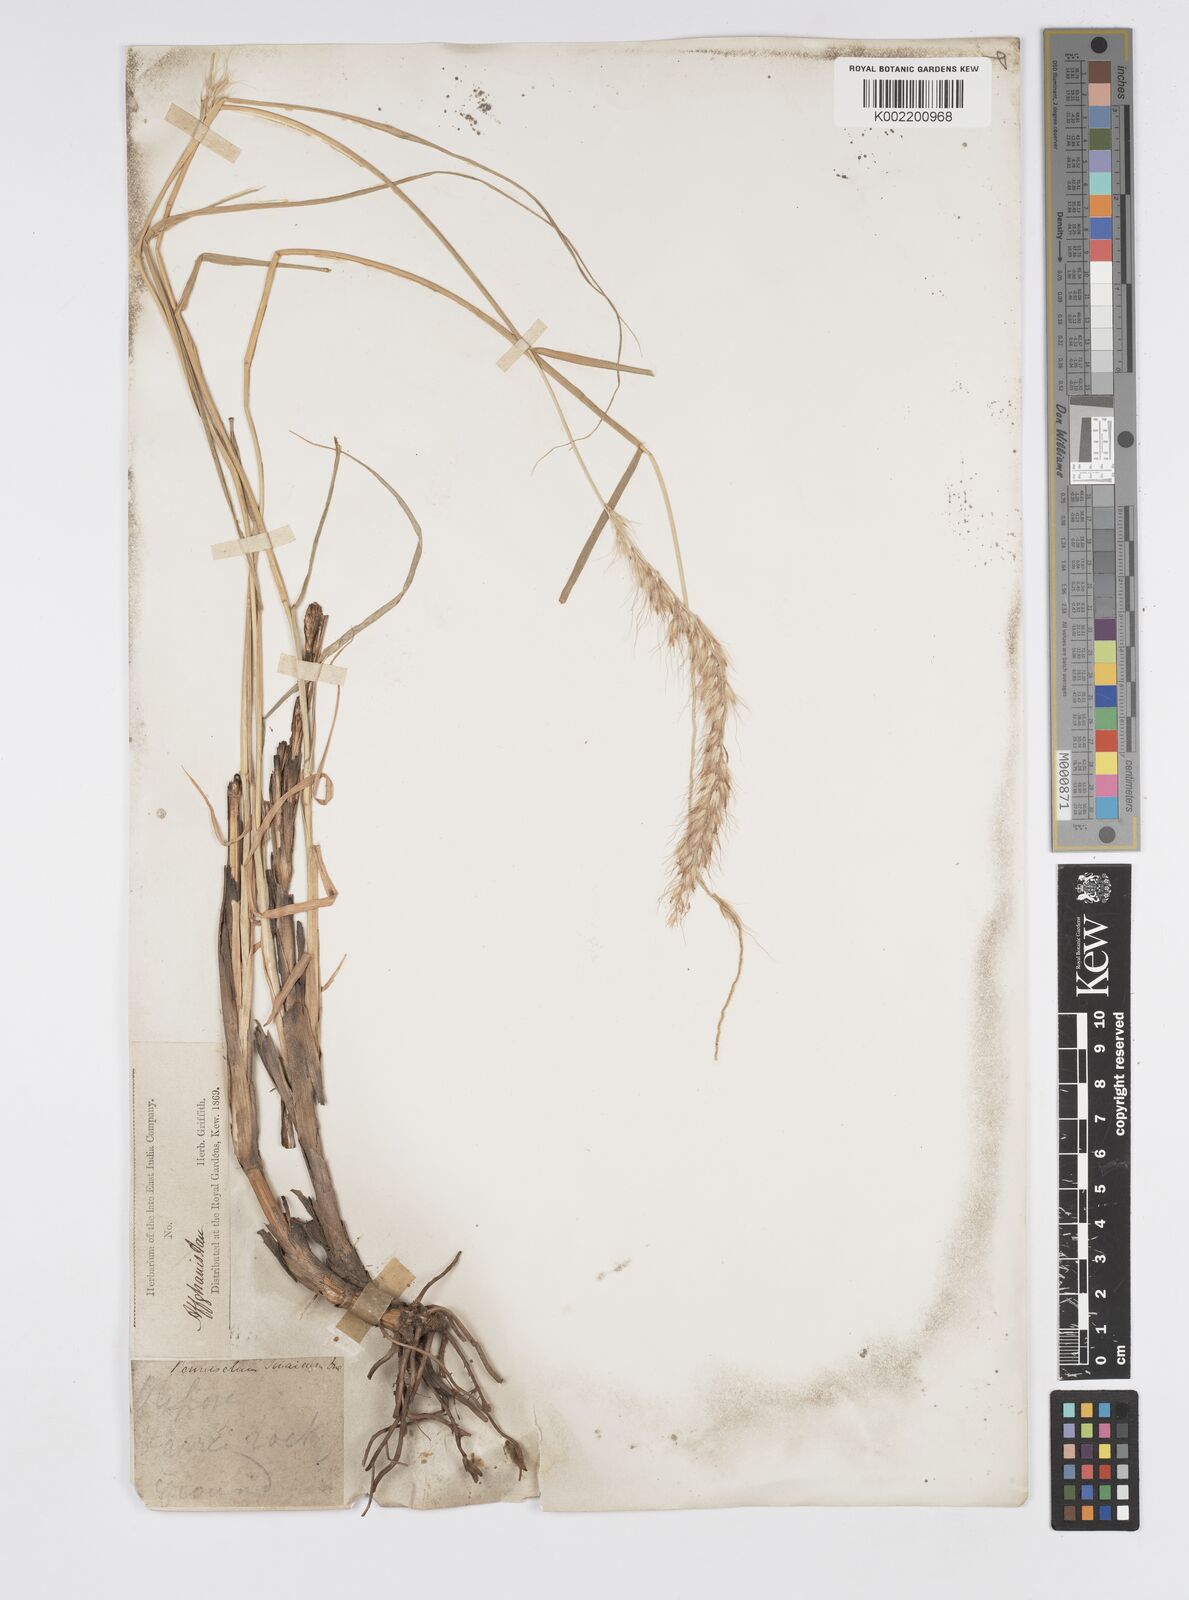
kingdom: Plantae
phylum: Tracheophyta
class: Liliopsida
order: Poales
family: Poaceae
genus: Cenchrus
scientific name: Cenchrus orientalis
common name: Oriental fountain grass
